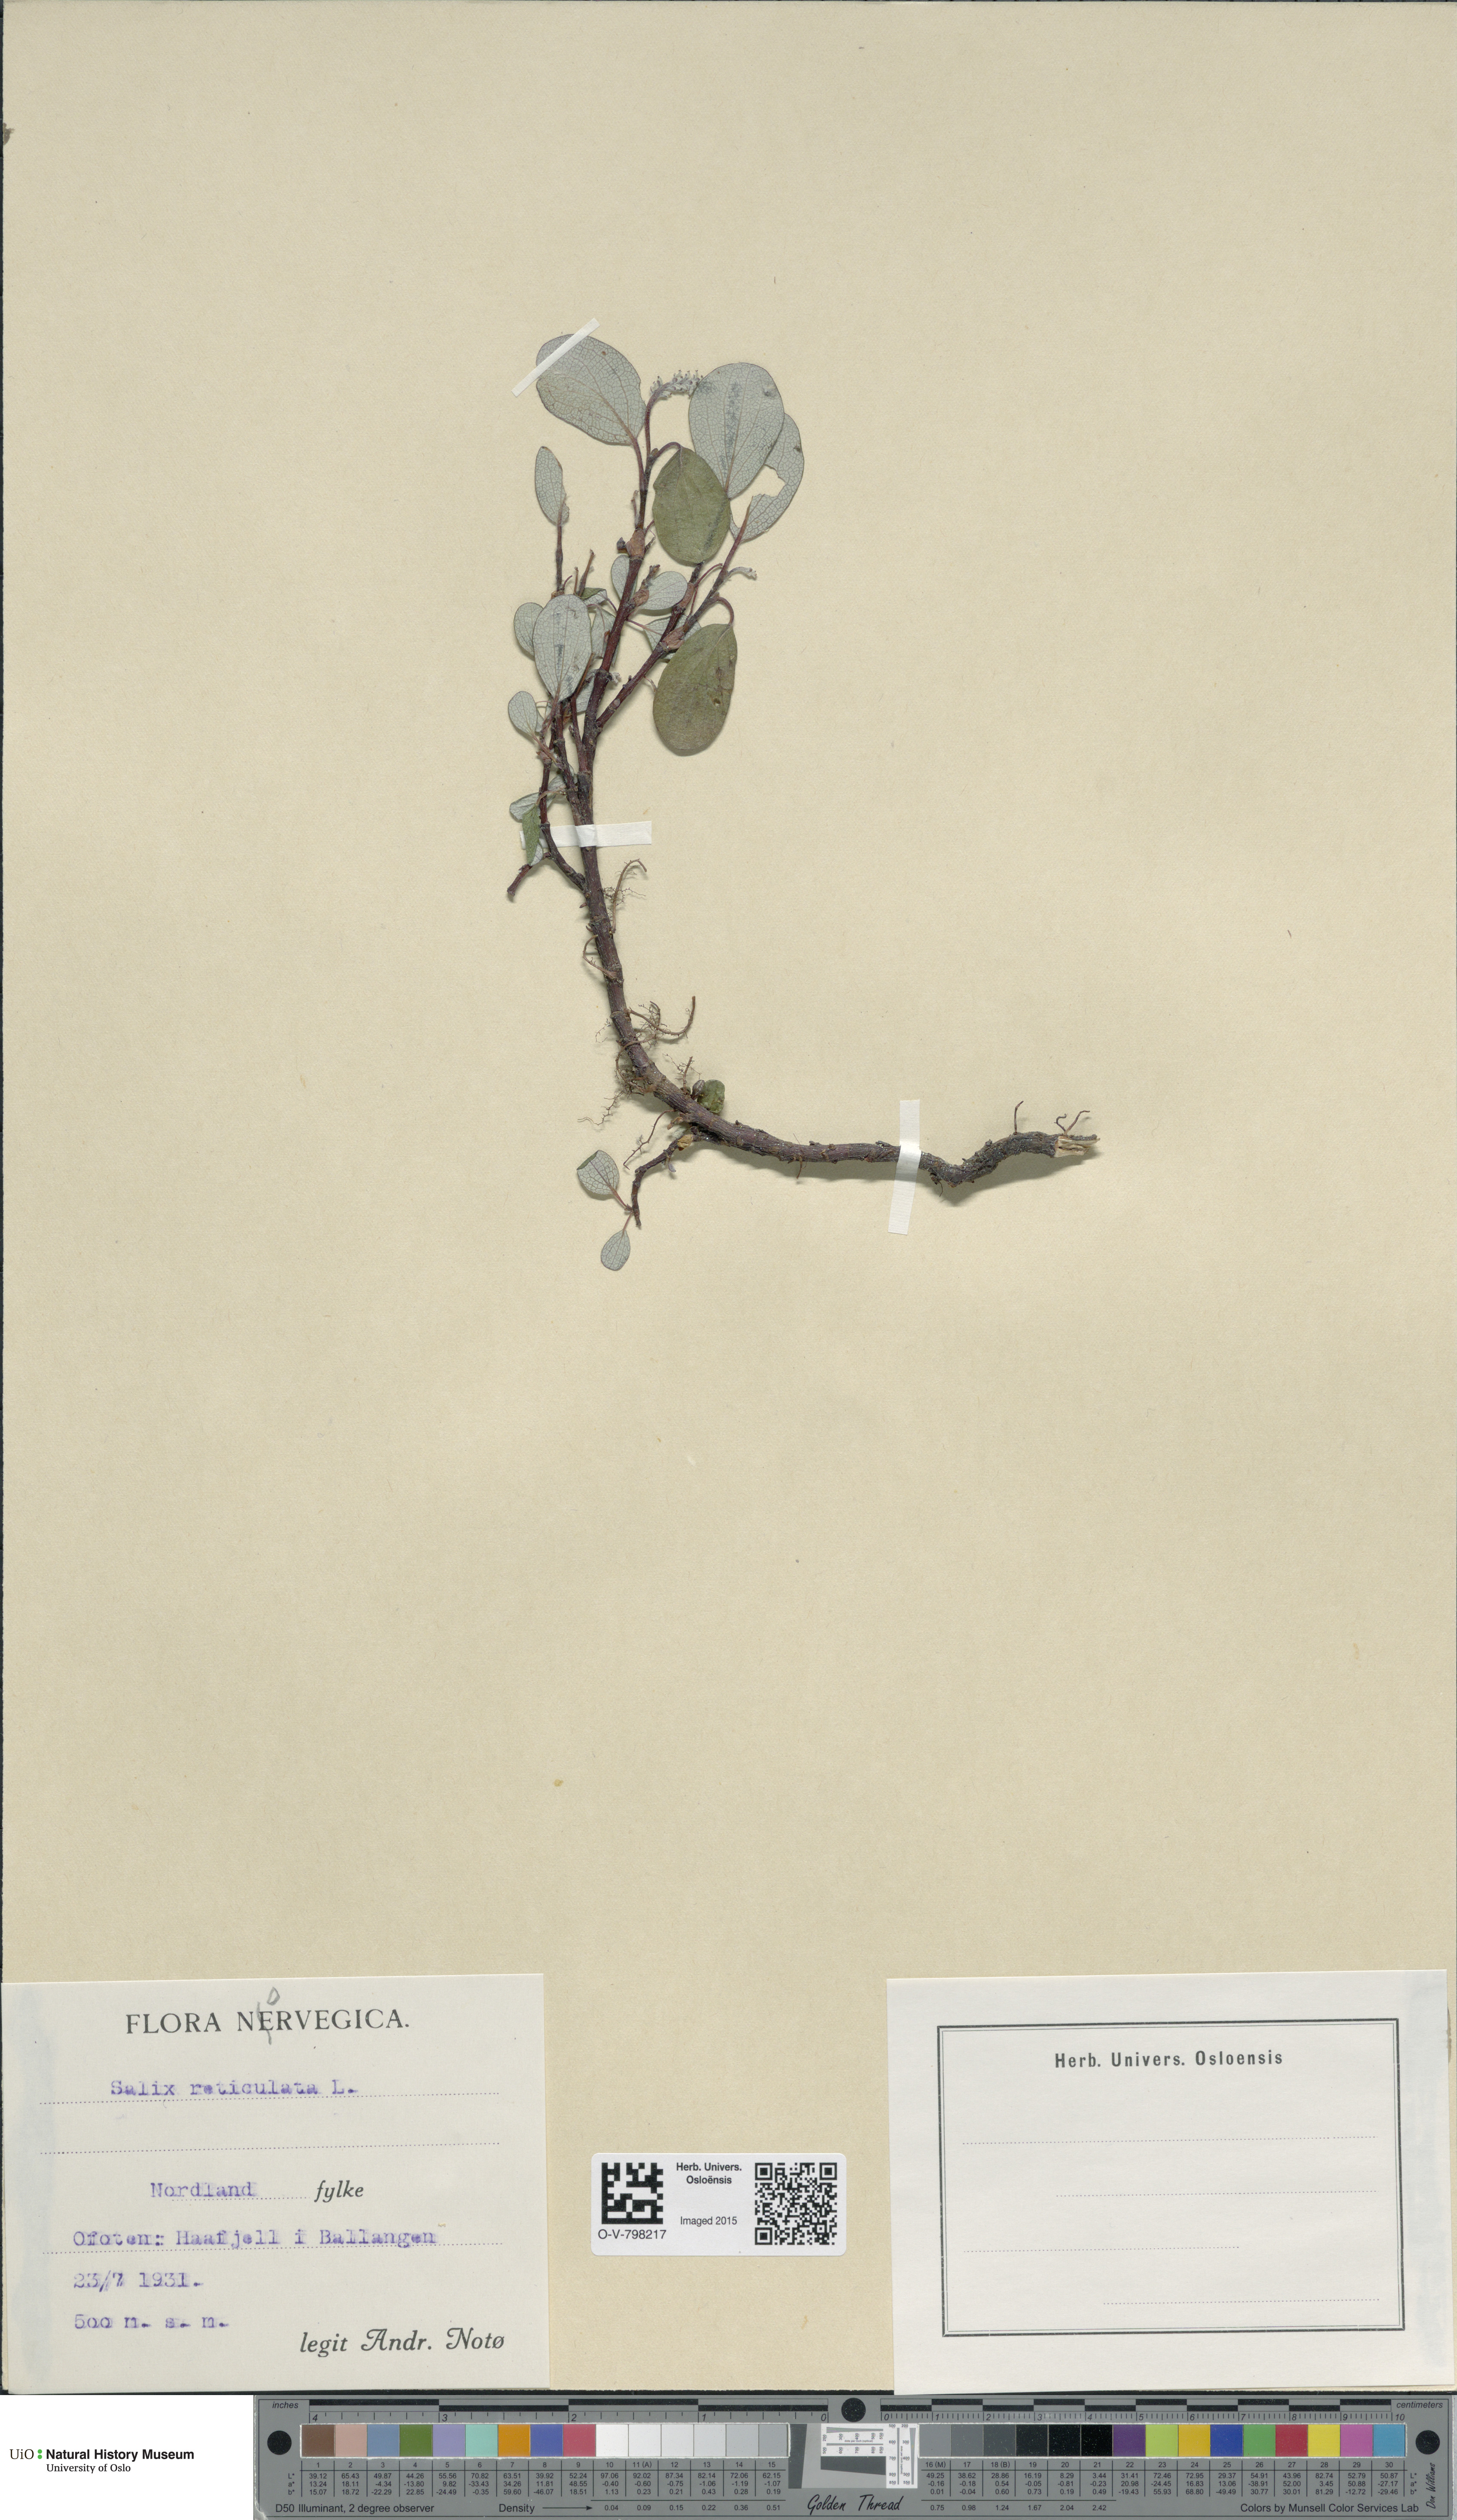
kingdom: Plantae
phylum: Tracheophyta
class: Magnoliopsida
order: Malpighiales
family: Salicaceae
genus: Salix
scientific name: Salix reticulata
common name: Net-leaved willow
